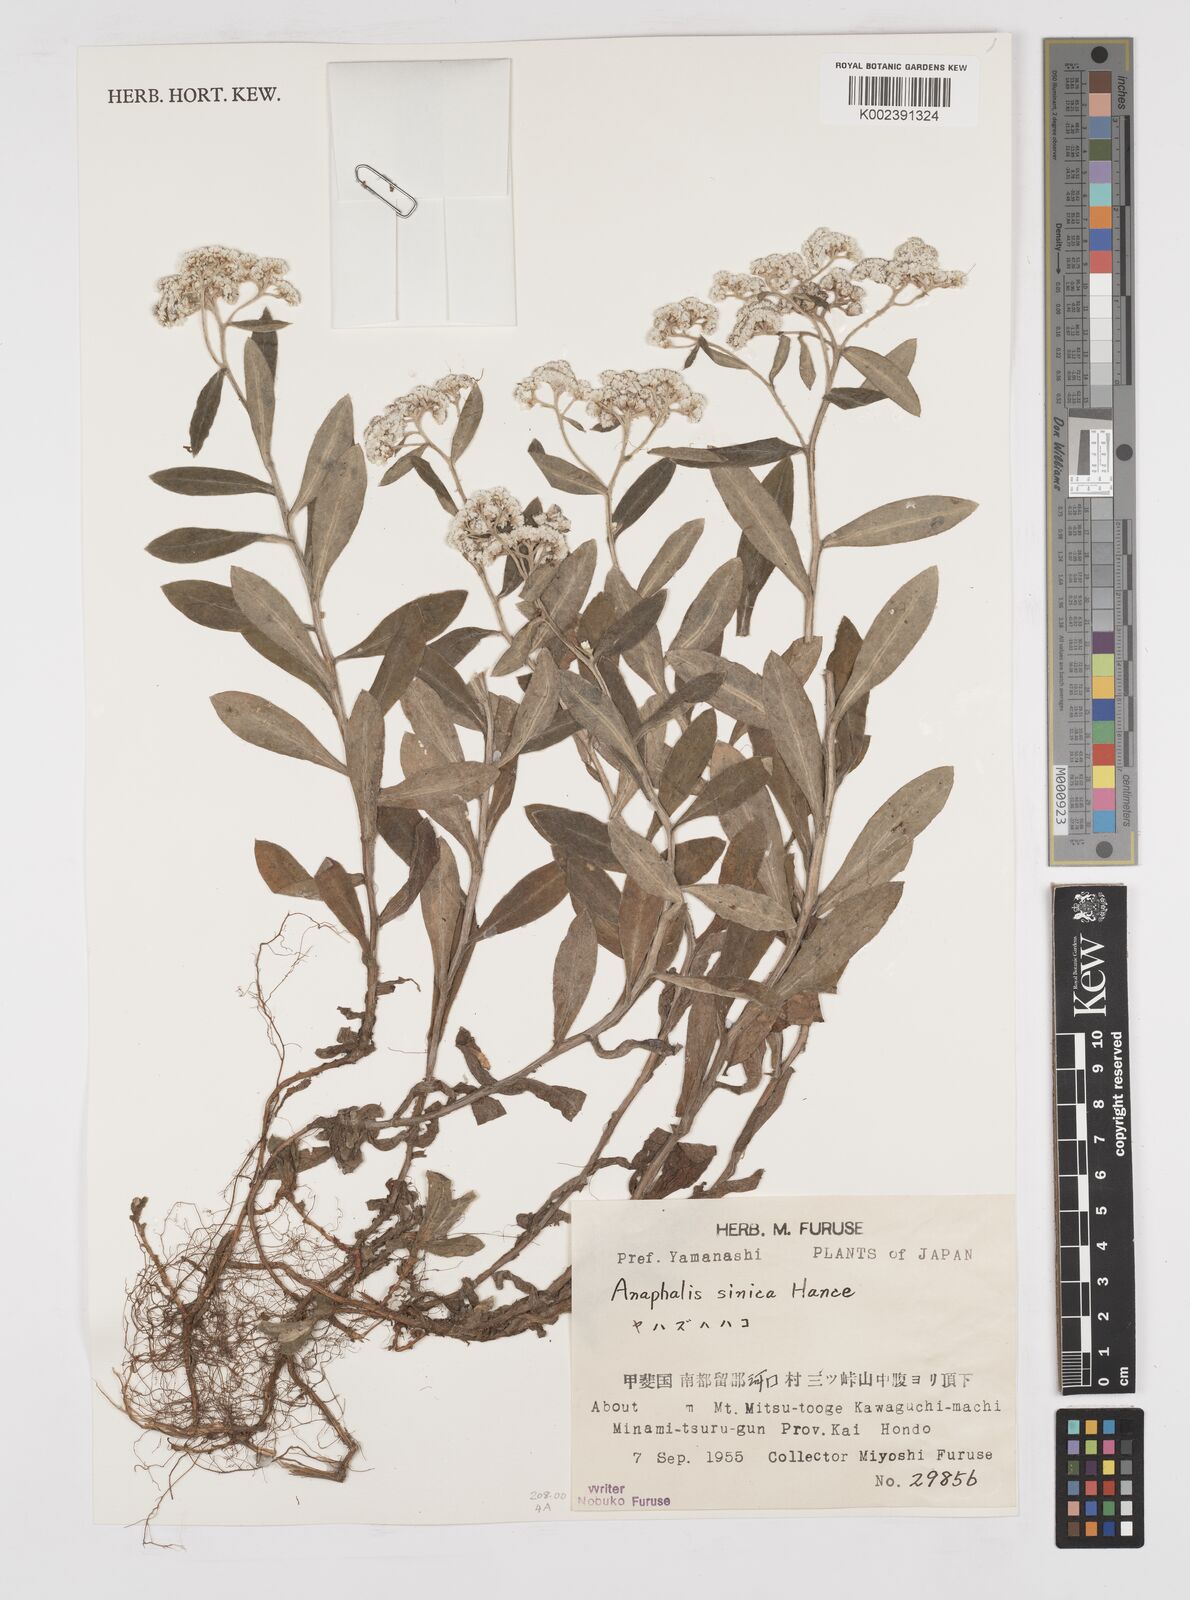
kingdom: Plantae
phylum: Tracheophyta
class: Magnoliopsida
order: Asterales
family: Asteraceae
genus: Anaphalis
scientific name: Anaphalis sinica
